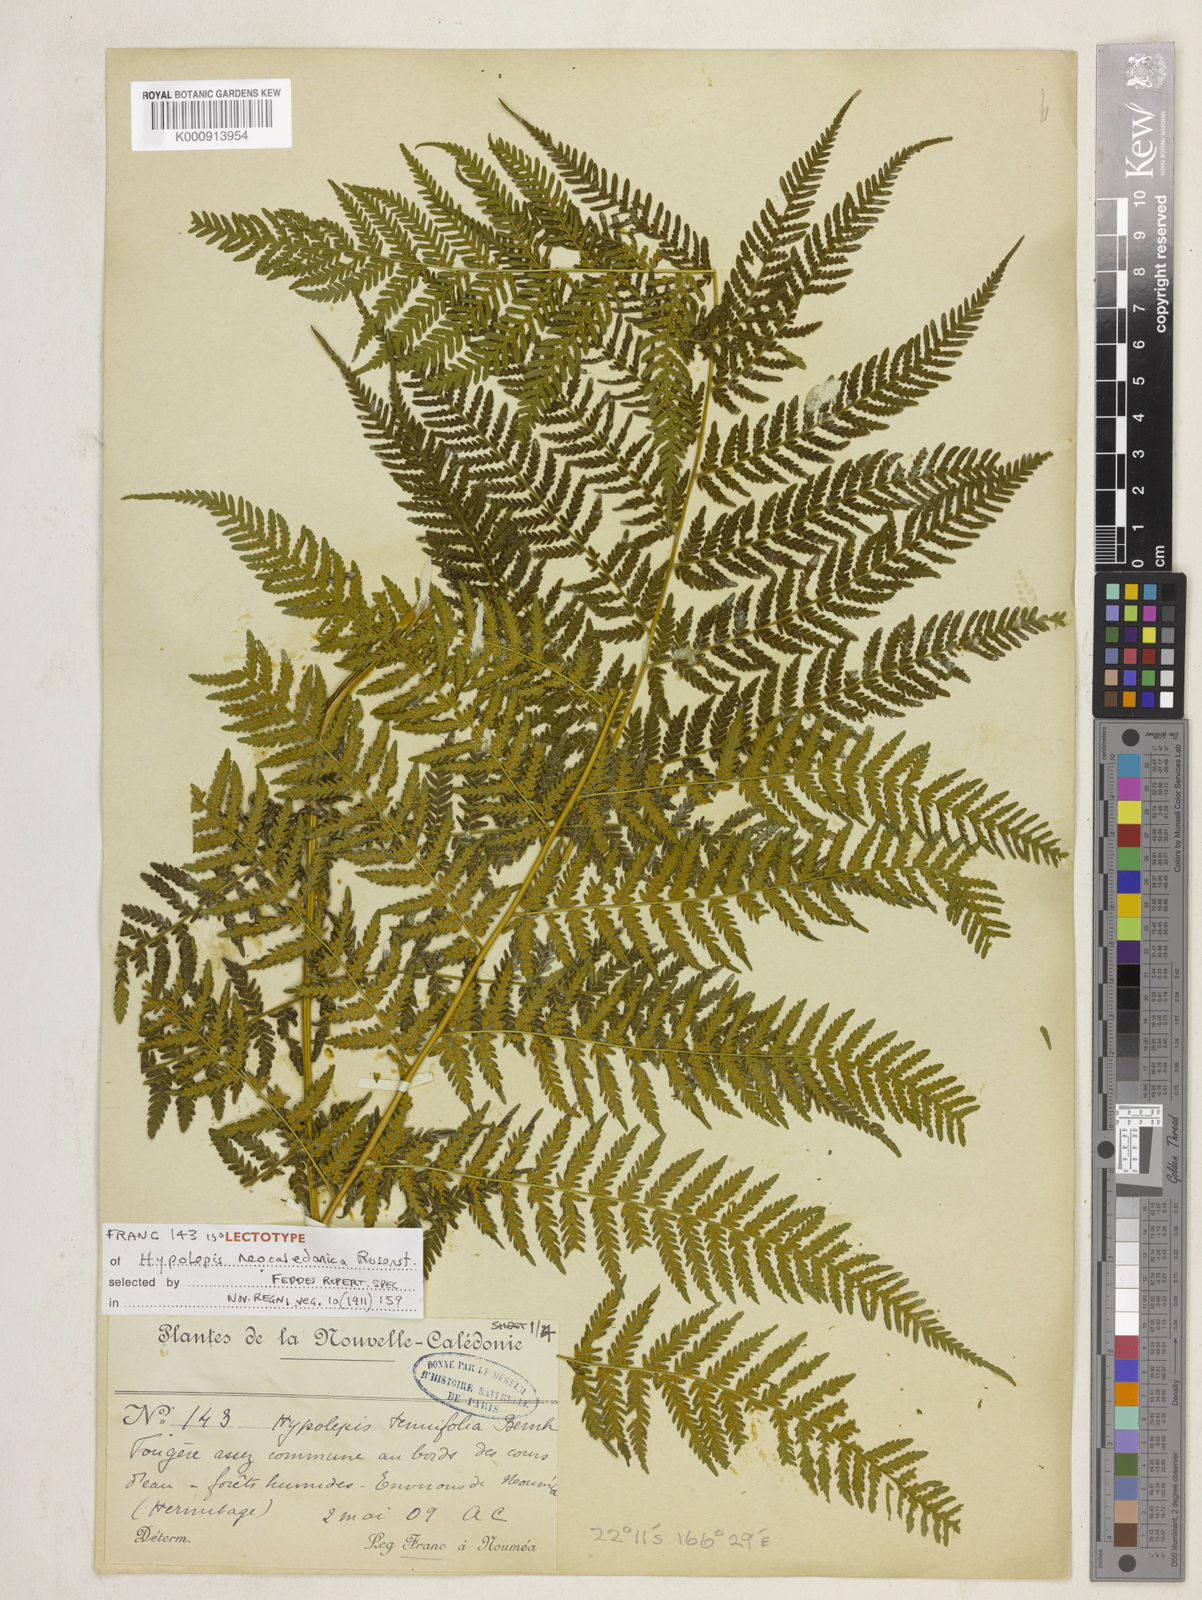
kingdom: Plantae
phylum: Tracheophyta
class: Polypodiopsida
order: Polypodiales
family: Dennstaedtiaceae
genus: Hypolepis
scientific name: Hypolepis tenuifolia
